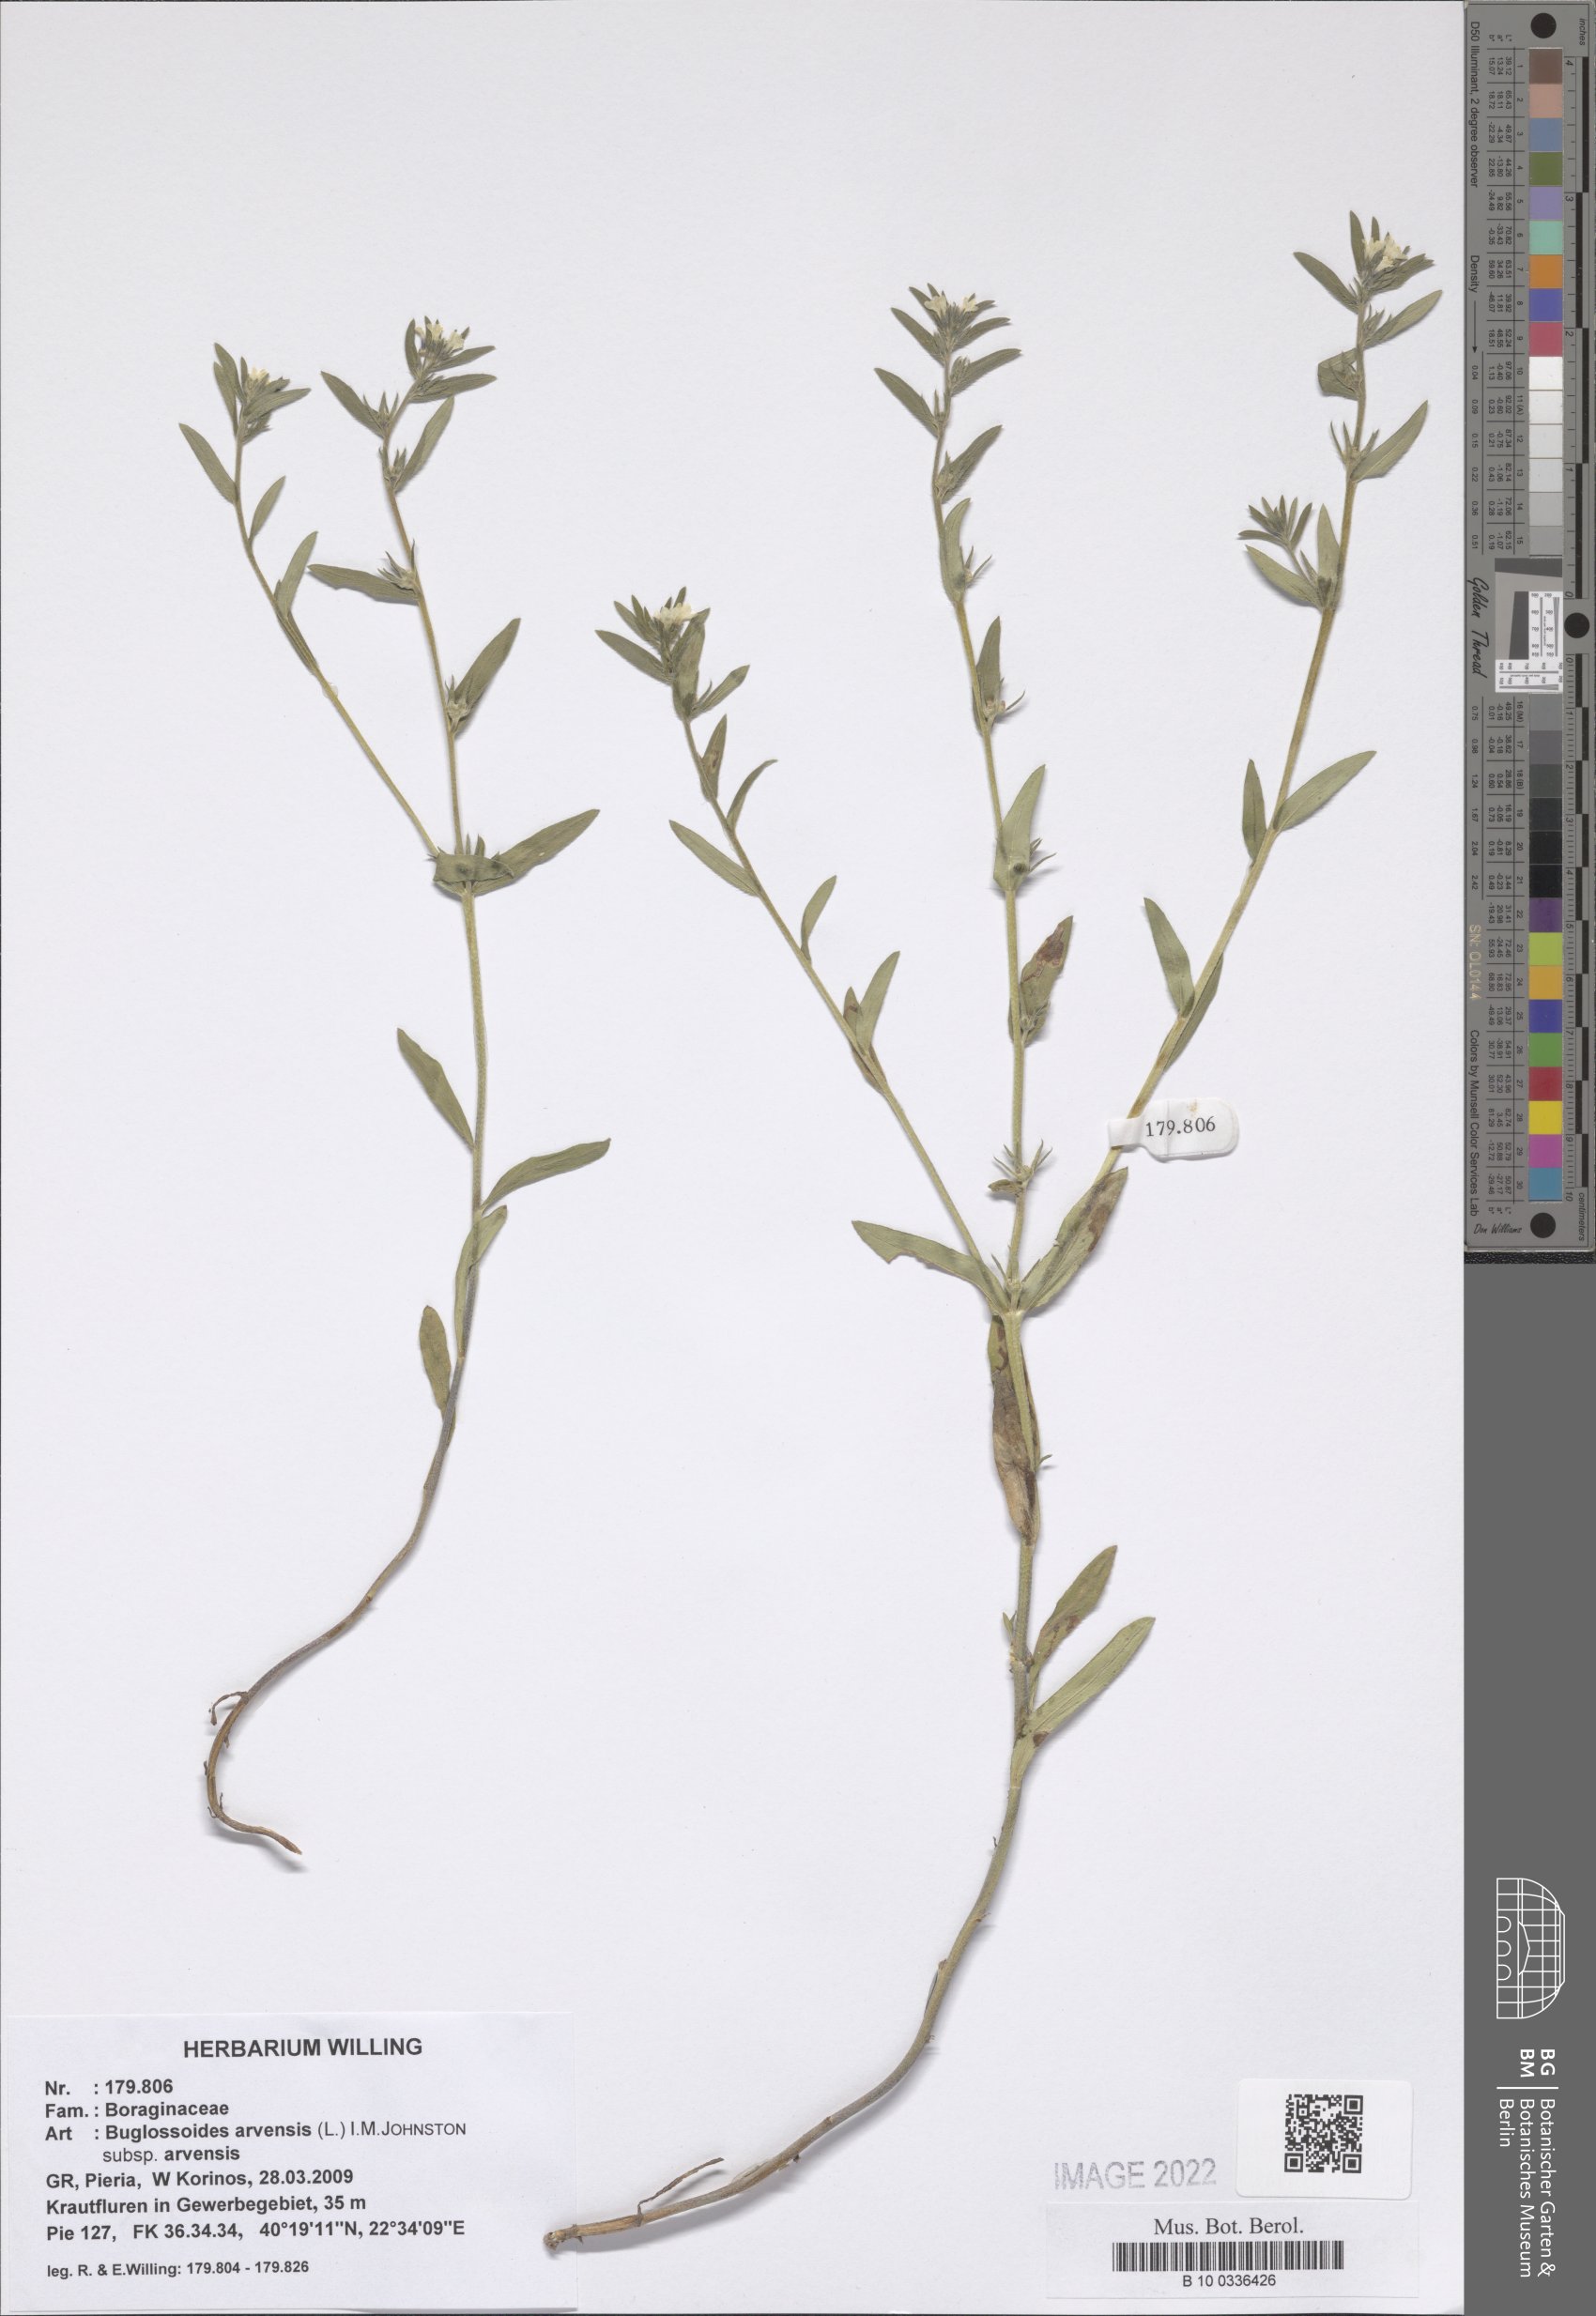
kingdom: Plantae
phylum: Tracheophyta
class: Magnoliopsida
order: Boraginales
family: Boraginaceae
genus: Buglossoides
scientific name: Buglossoides arvensis
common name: Corn gromwell
